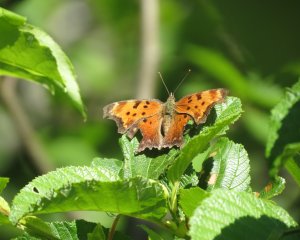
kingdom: Animalia
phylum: Arthropoda
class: Insecta
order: Lepidoptera
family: Nymphalidae
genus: Polygonia
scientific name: Polygonia comma
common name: Eastern Comma
